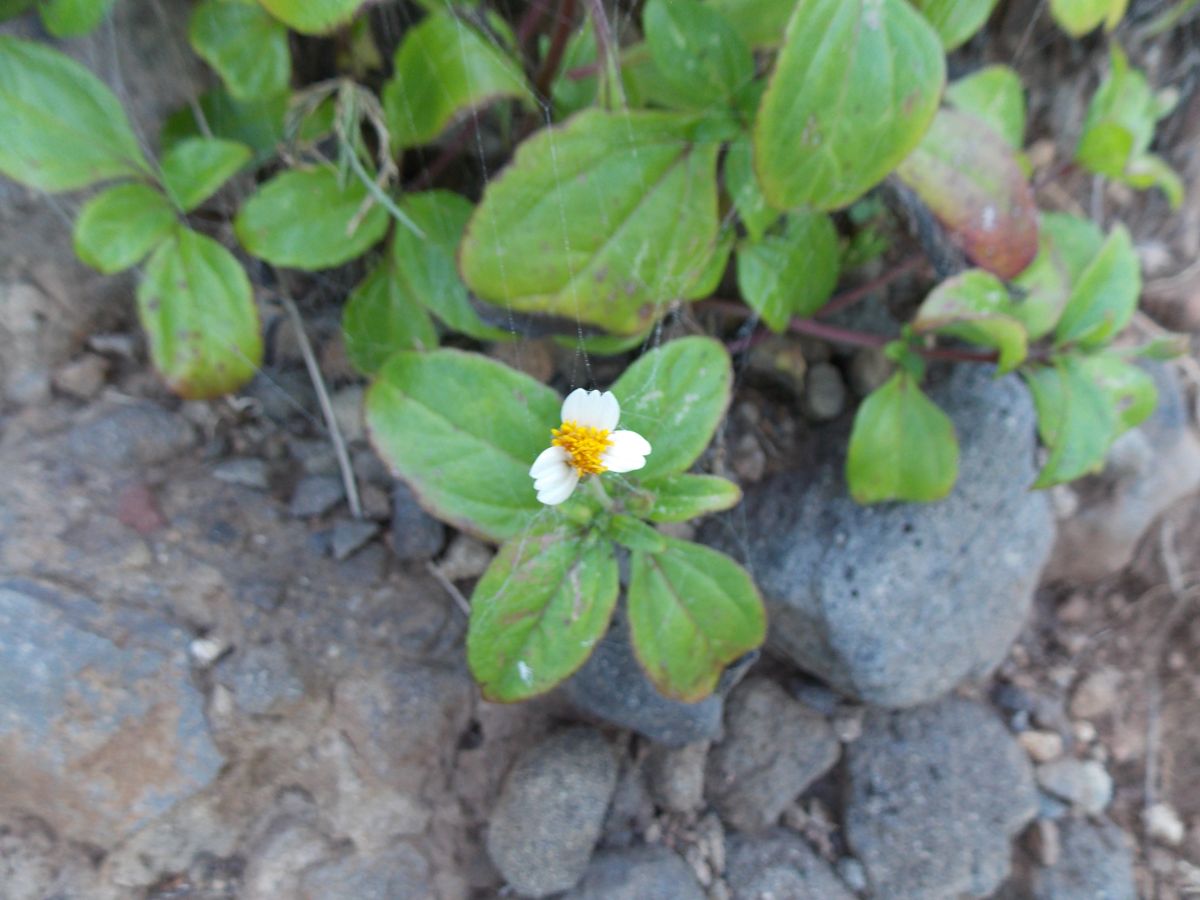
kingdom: Plantae
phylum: Tracheophyta
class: Magnoliopsida
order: Asterales
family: Asteraceae
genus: Tridax
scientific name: Tridax platyphylla
